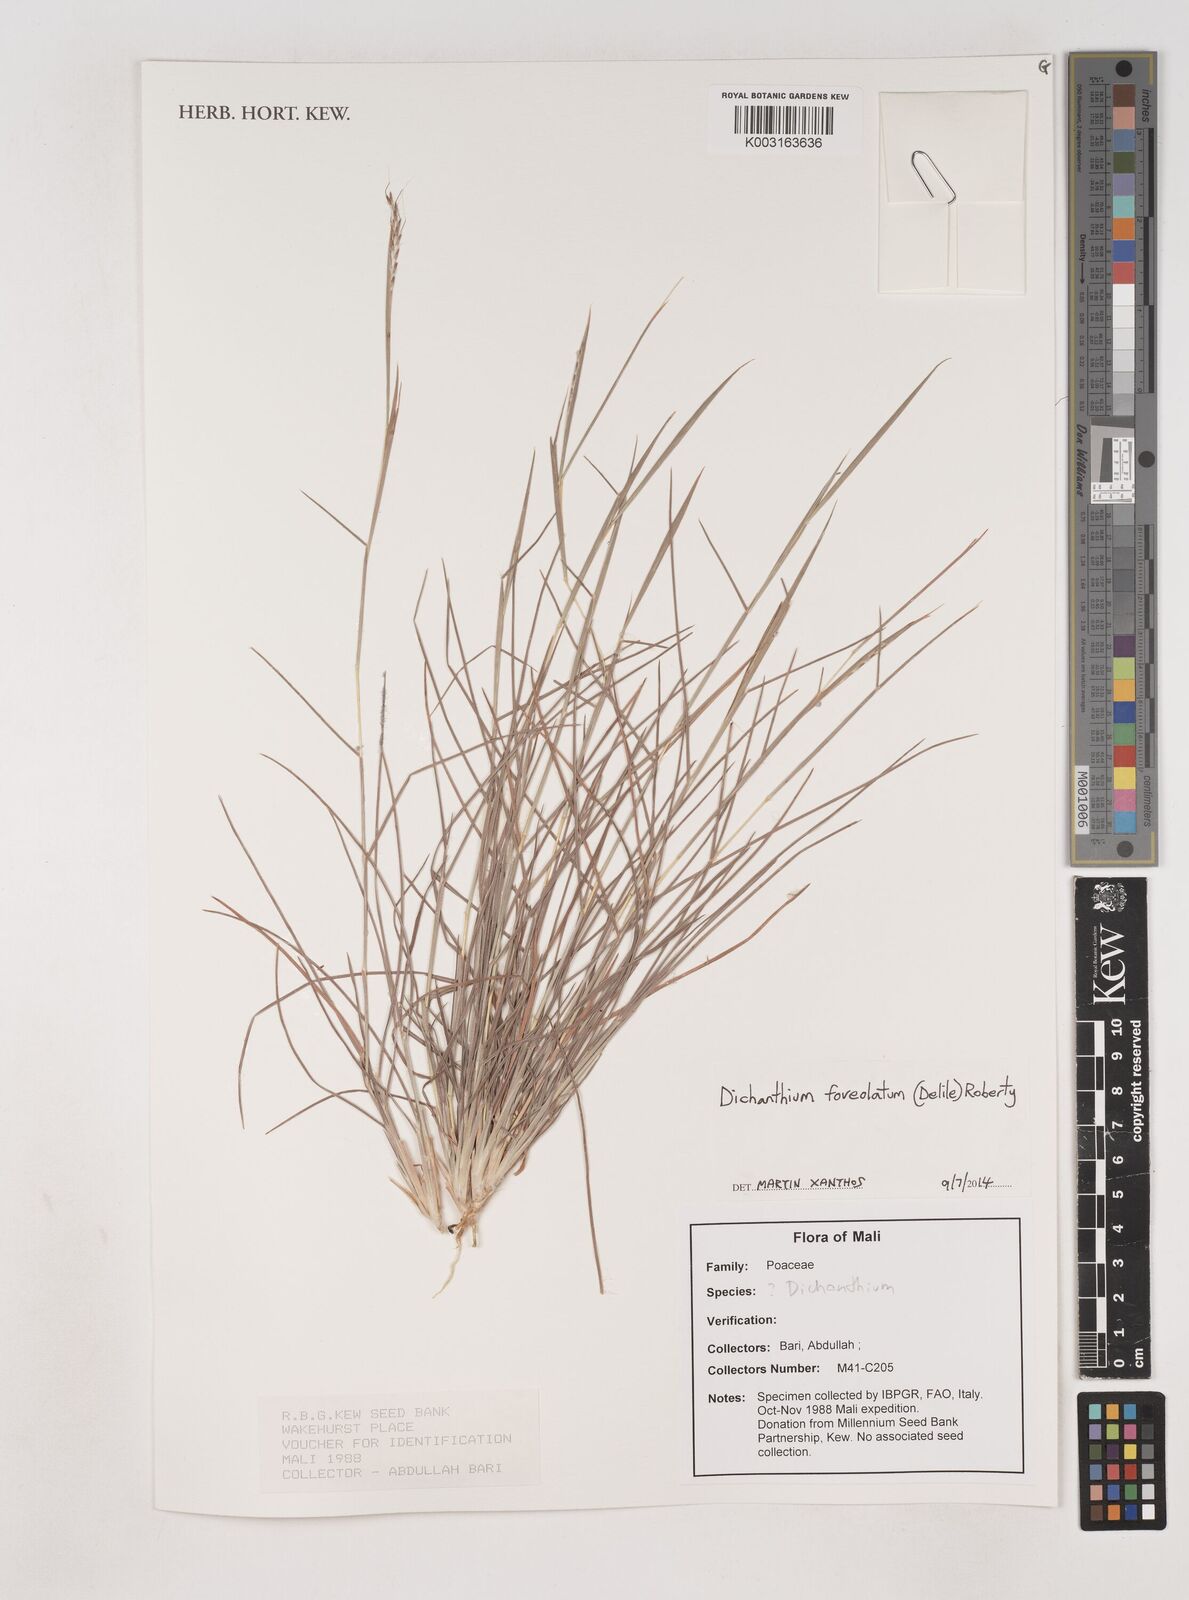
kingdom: Plantae
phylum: Tracheophyta
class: Liliopsida
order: Poales
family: Poaceae
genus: Dichanthium
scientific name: Dichanthium foveolatum
